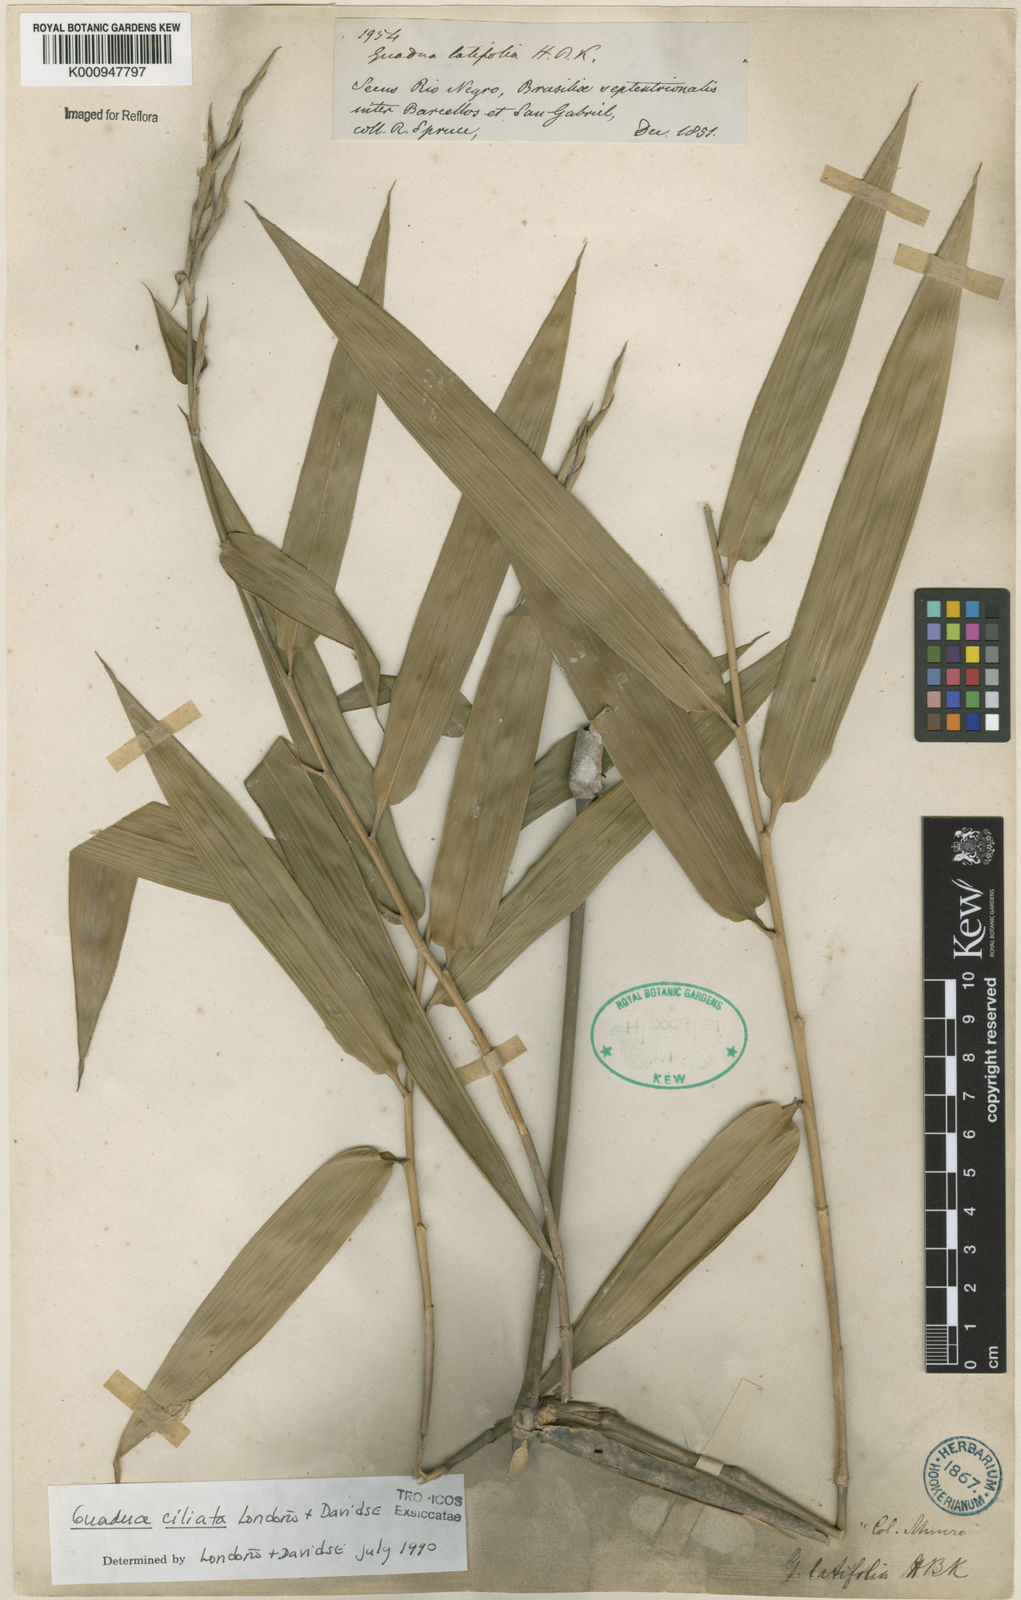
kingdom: Plantae
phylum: Tracheophyta
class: Liliopsida
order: Poales
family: Poaceae
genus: Guadua
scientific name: Guadua
